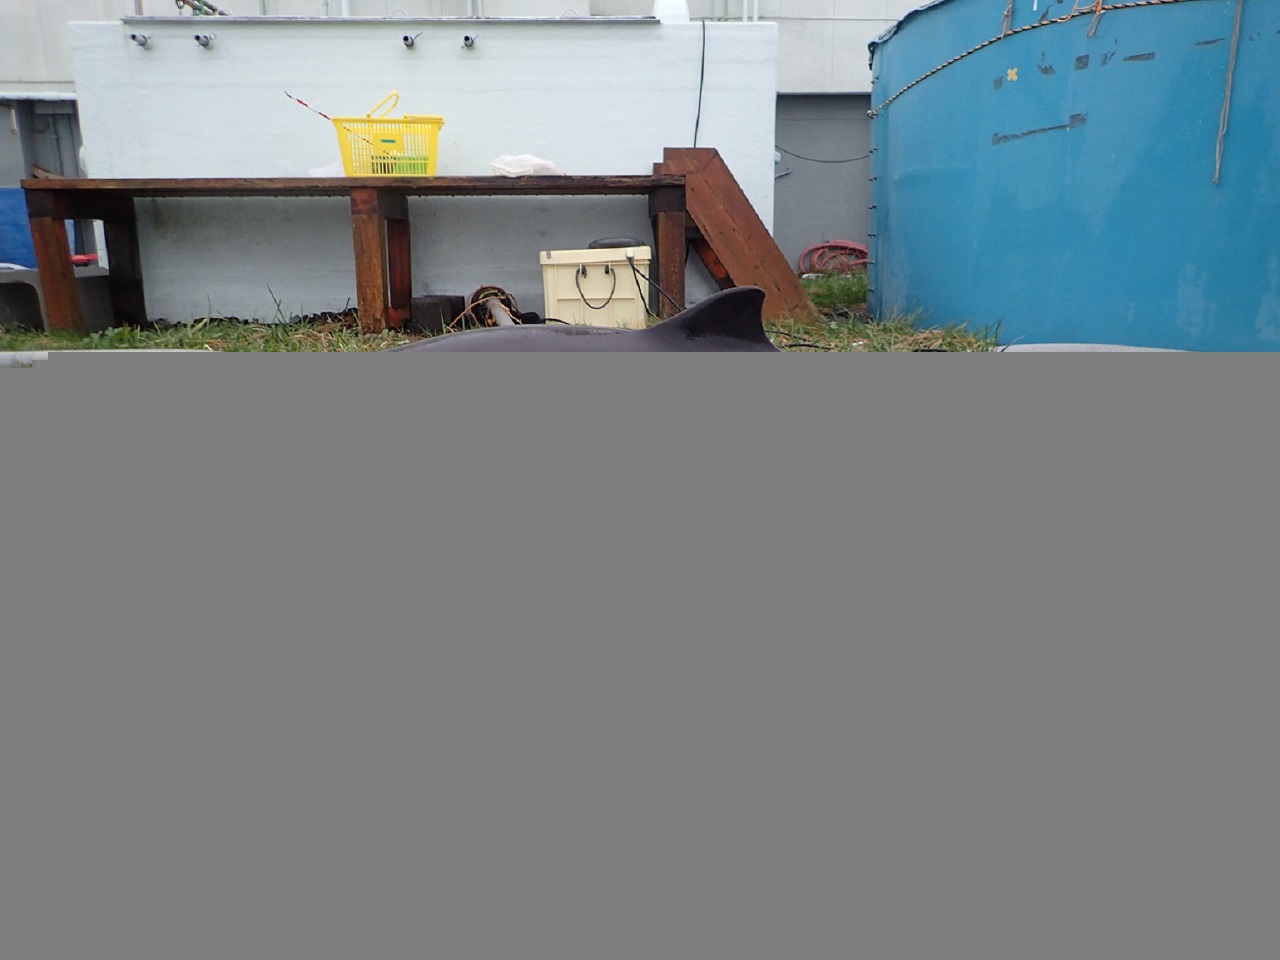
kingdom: Animalia
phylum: Chordata
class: Mammalia
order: Cetacea
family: Phocoenidae
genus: Phocoena
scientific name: Phocoena phocoena
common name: Harbour porpoise
